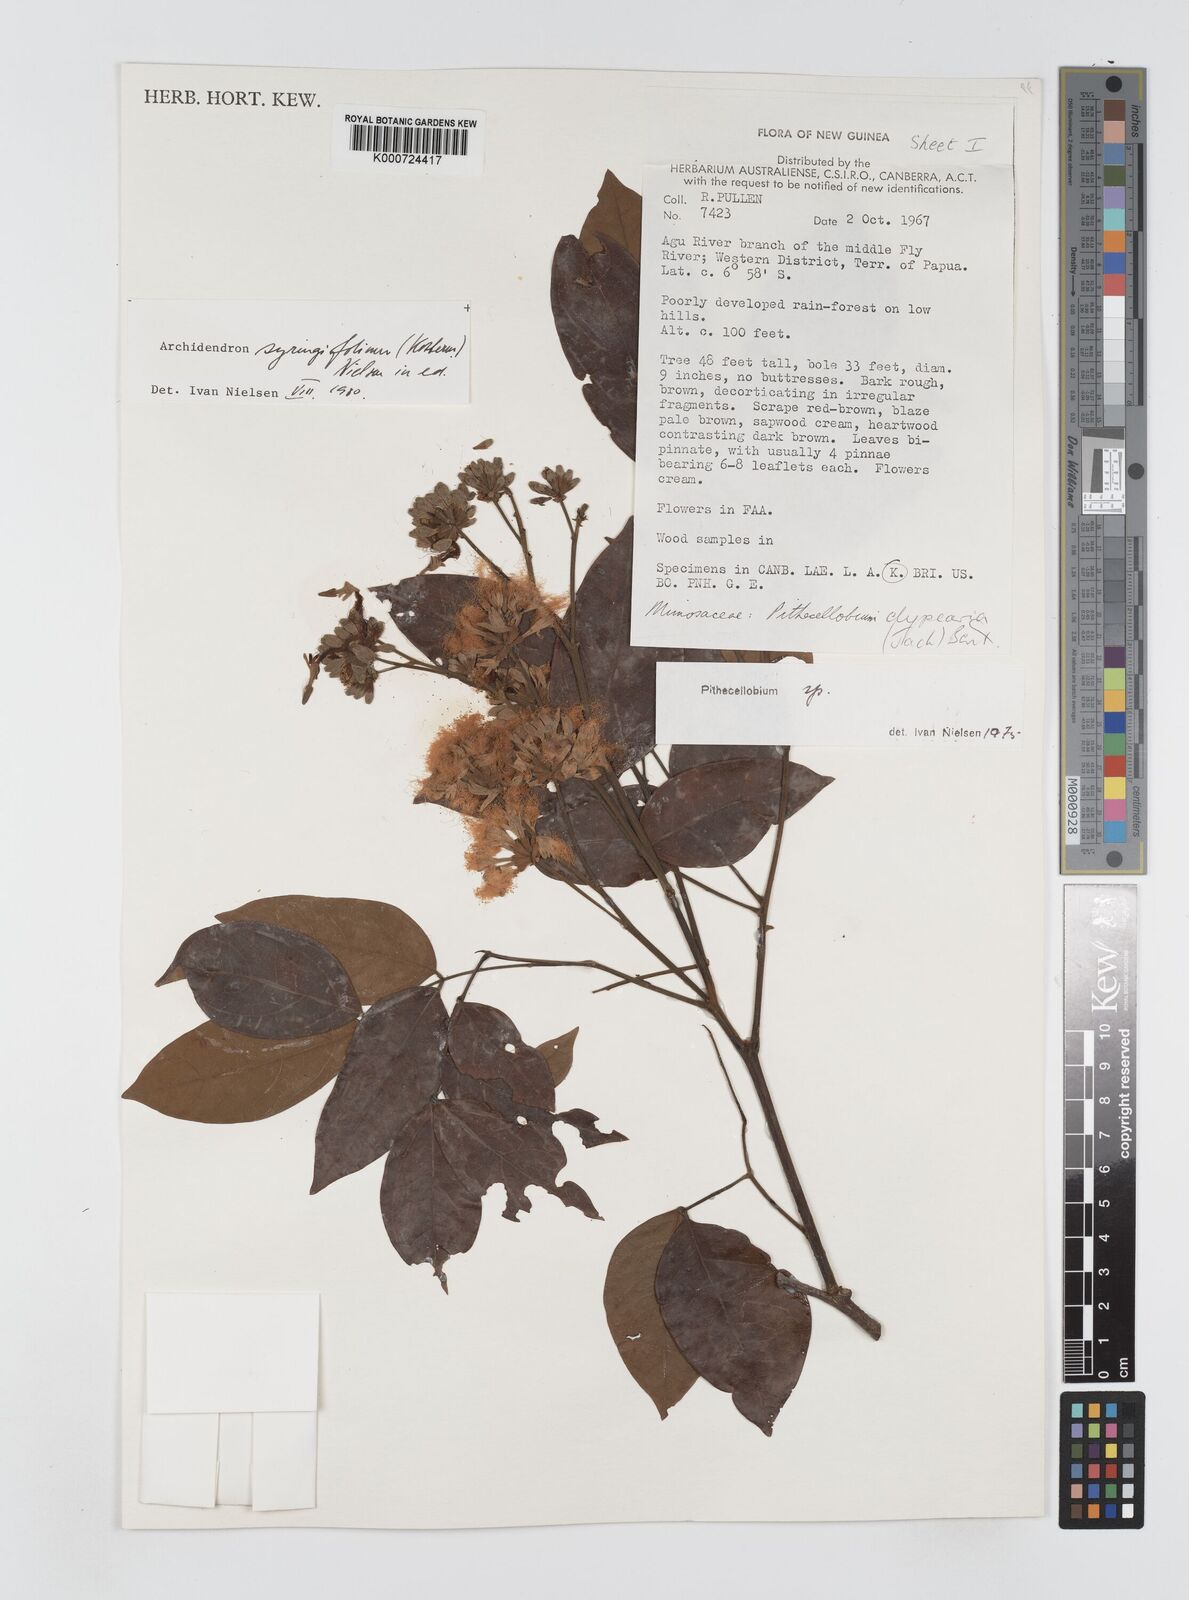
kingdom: Plantae
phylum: Tracheophyta
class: Magnoliopsida
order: Fabales
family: Fabaceae
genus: Archidendron
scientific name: Archidendron syringifolium
